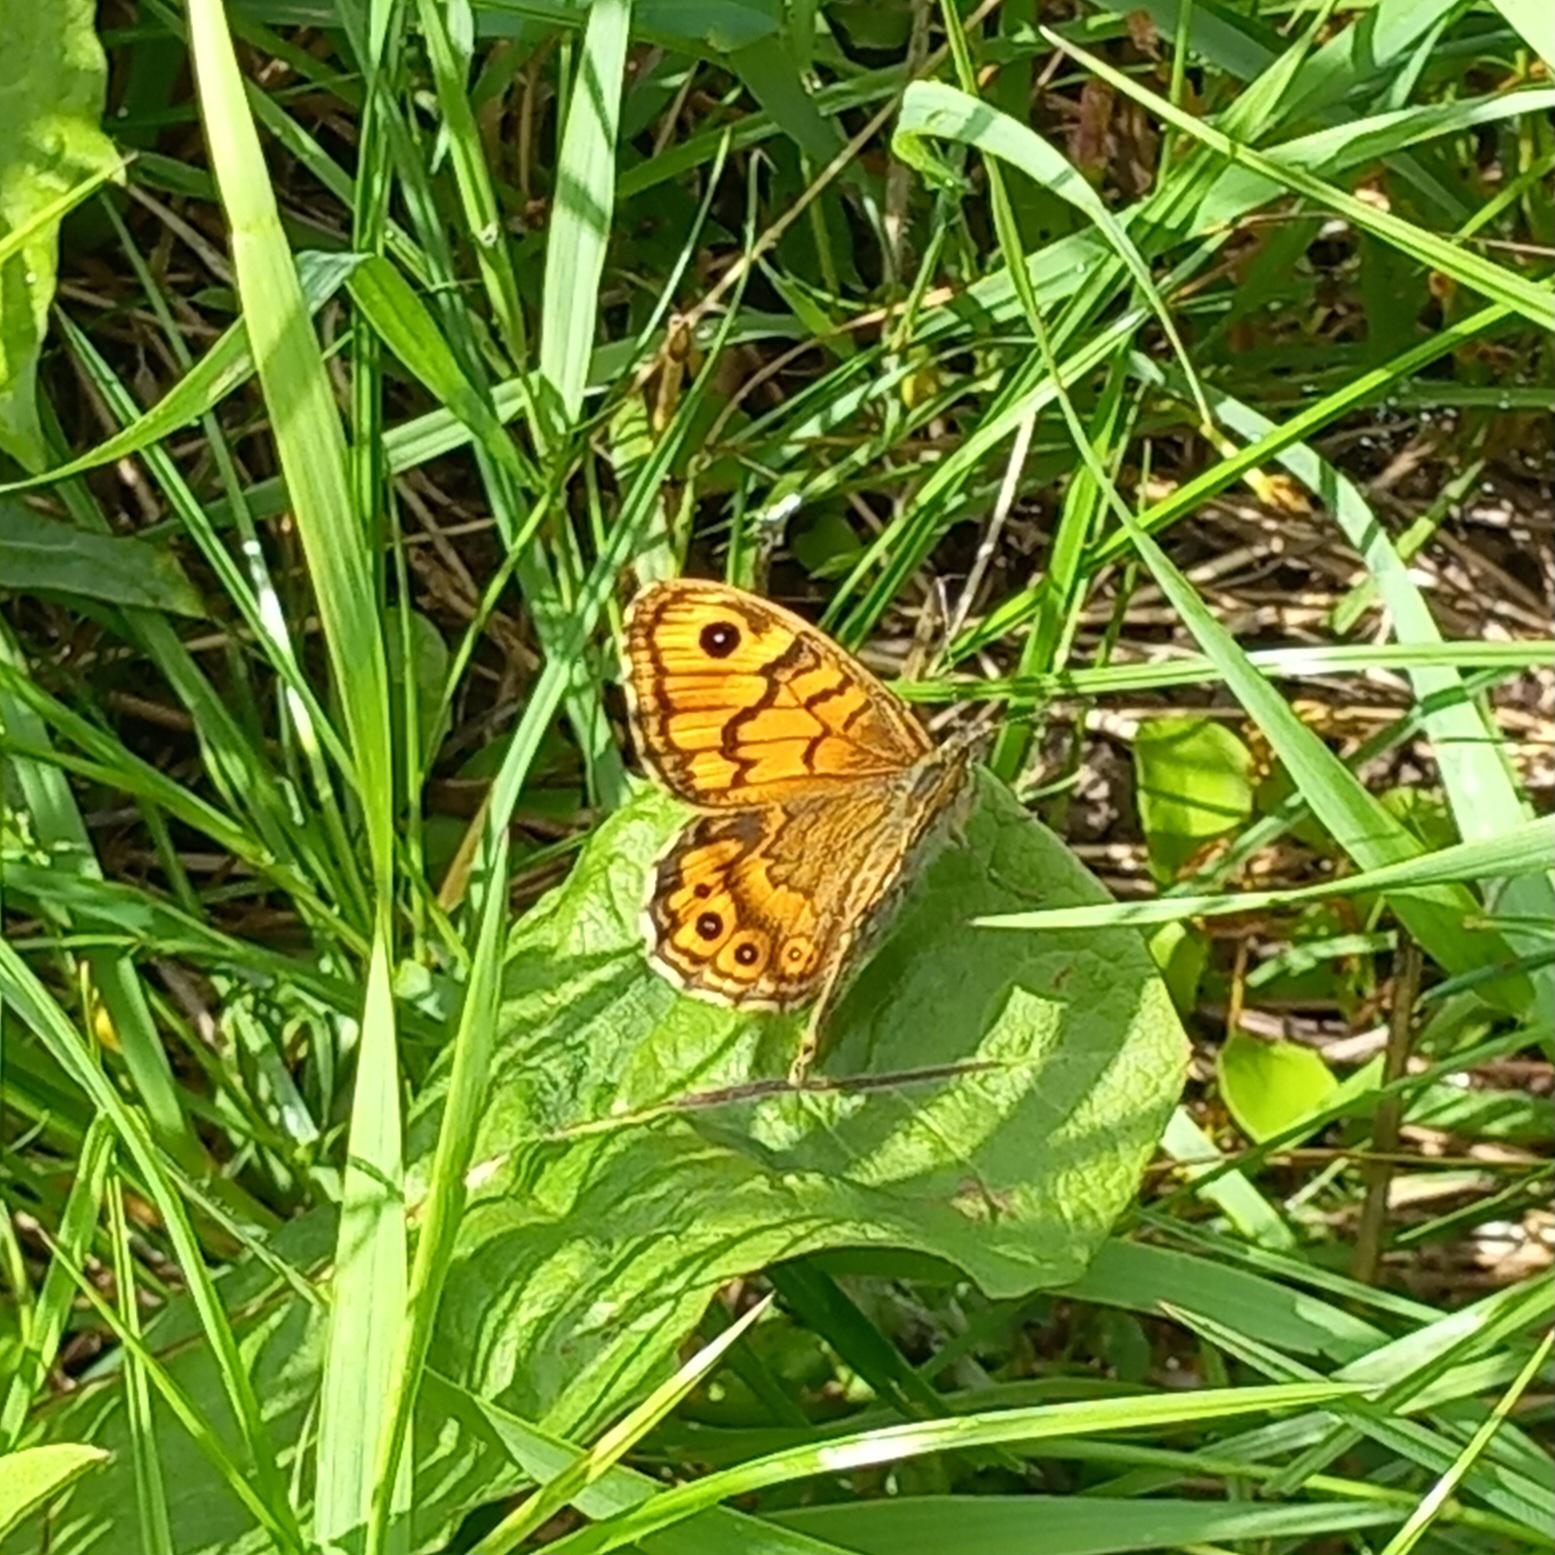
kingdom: Animalia
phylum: Arthropoda
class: Insecta
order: Lepidoptera
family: Nymphalidae
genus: Pararge
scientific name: Pararge Lasiommata megera
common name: Vejrandøje
